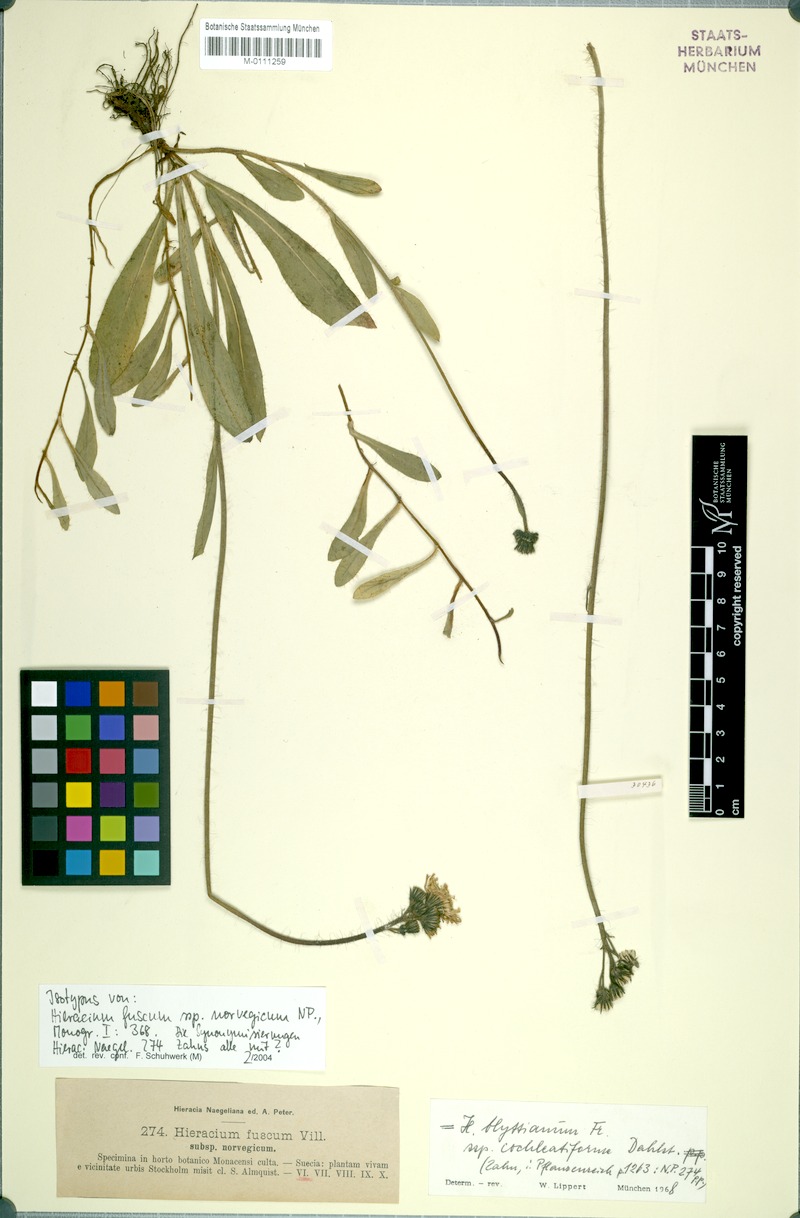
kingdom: Plantae
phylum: Tracheophyta
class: Magnoliopsida
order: Asterales
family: Asteraceae
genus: Pilosella
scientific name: Pilosella blyttiana
